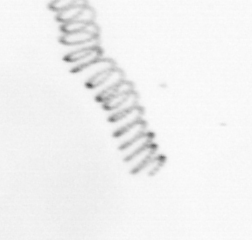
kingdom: Chromista
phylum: Ochrophyta
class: Bacillariophyceae
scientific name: Bacillariophyceae
